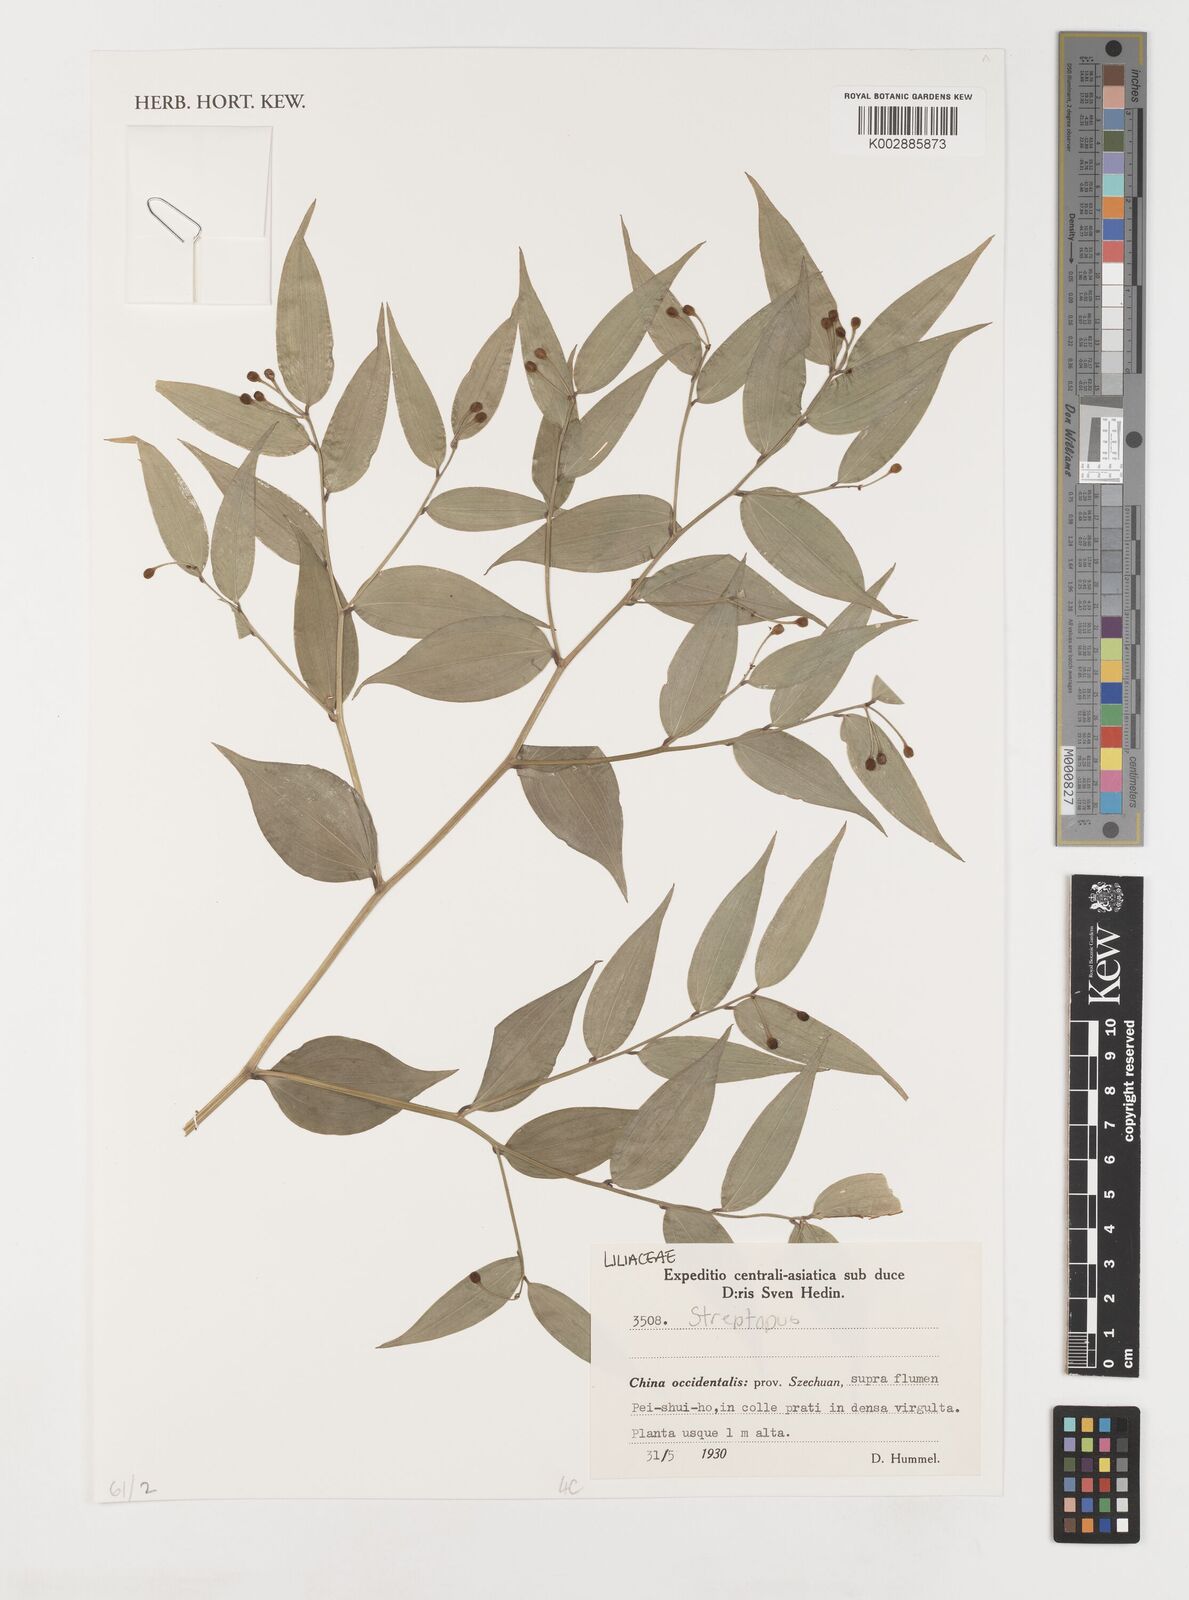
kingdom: Plantae
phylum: Tracheophyta
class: Liliopsida
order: Liliales
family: Liliaceae
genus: Streptopus
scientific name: Streptopus
